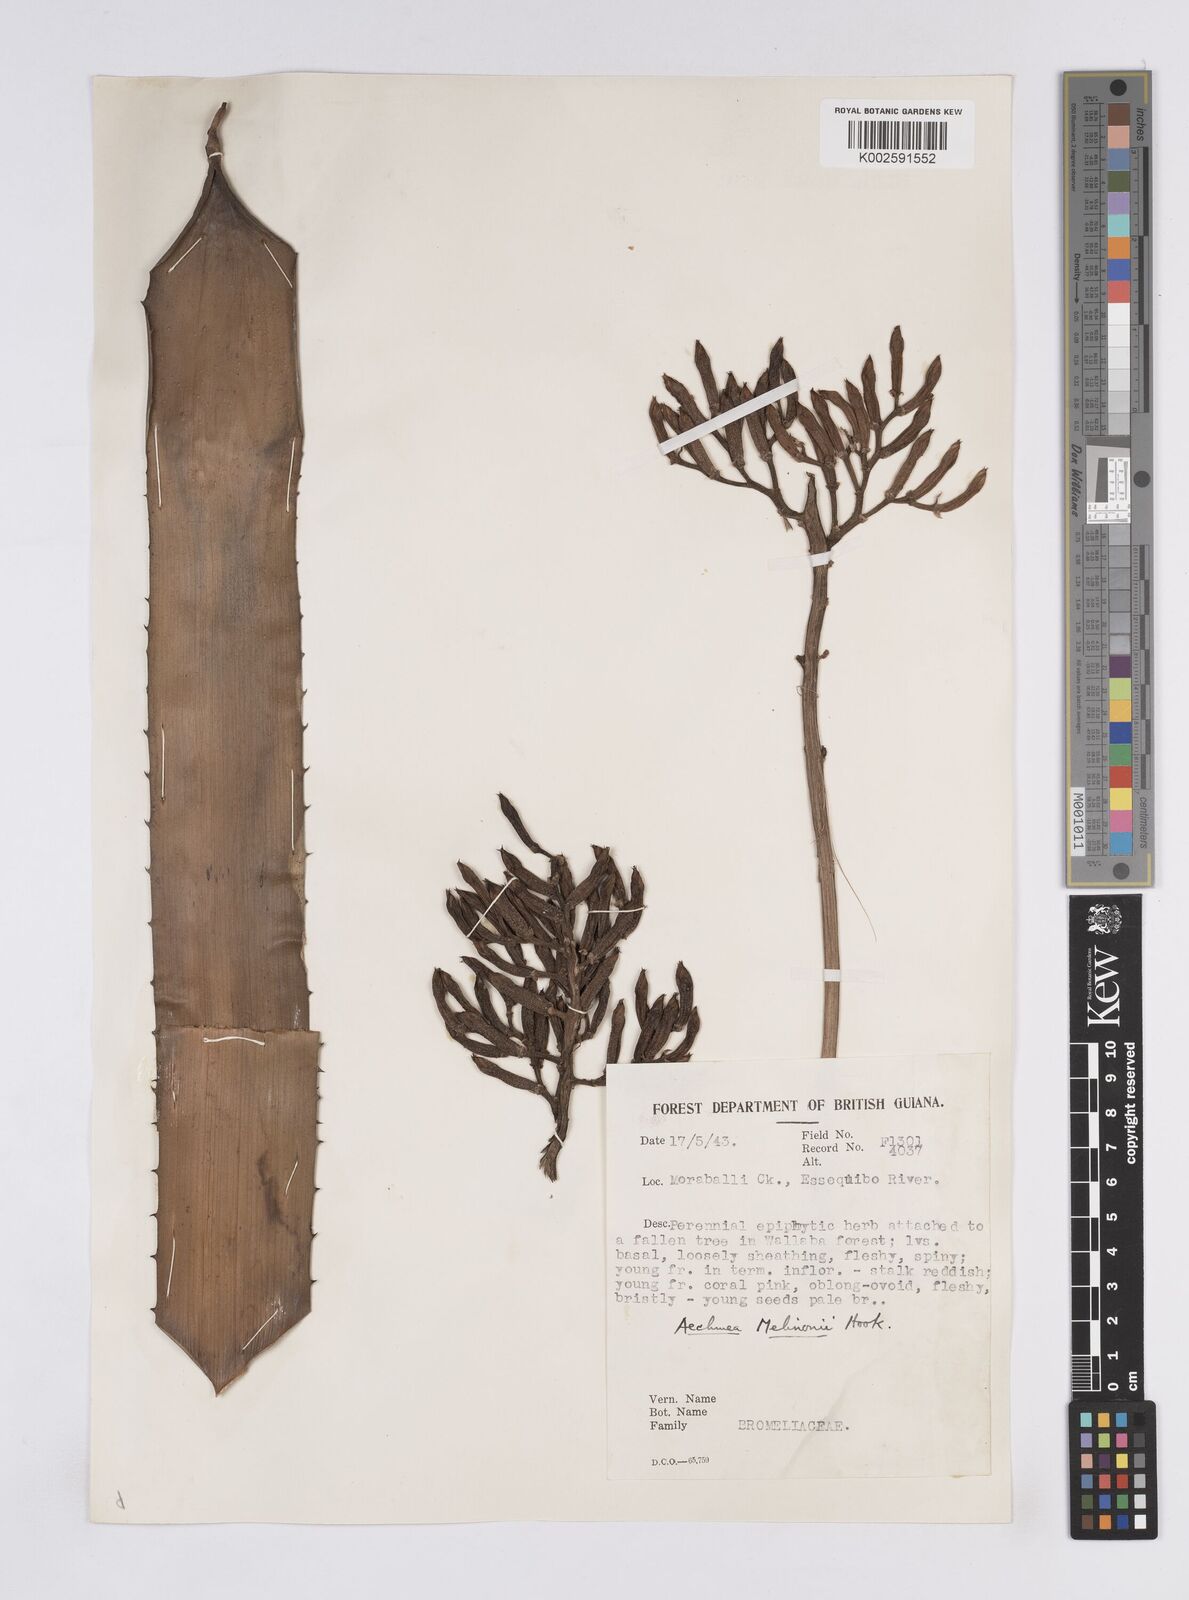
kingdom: Plantae
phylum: Tracheophyta
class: Liliopsida
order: Poales
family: Bromeliaceae
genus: Aechmea
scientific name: Aechmea melinonii
